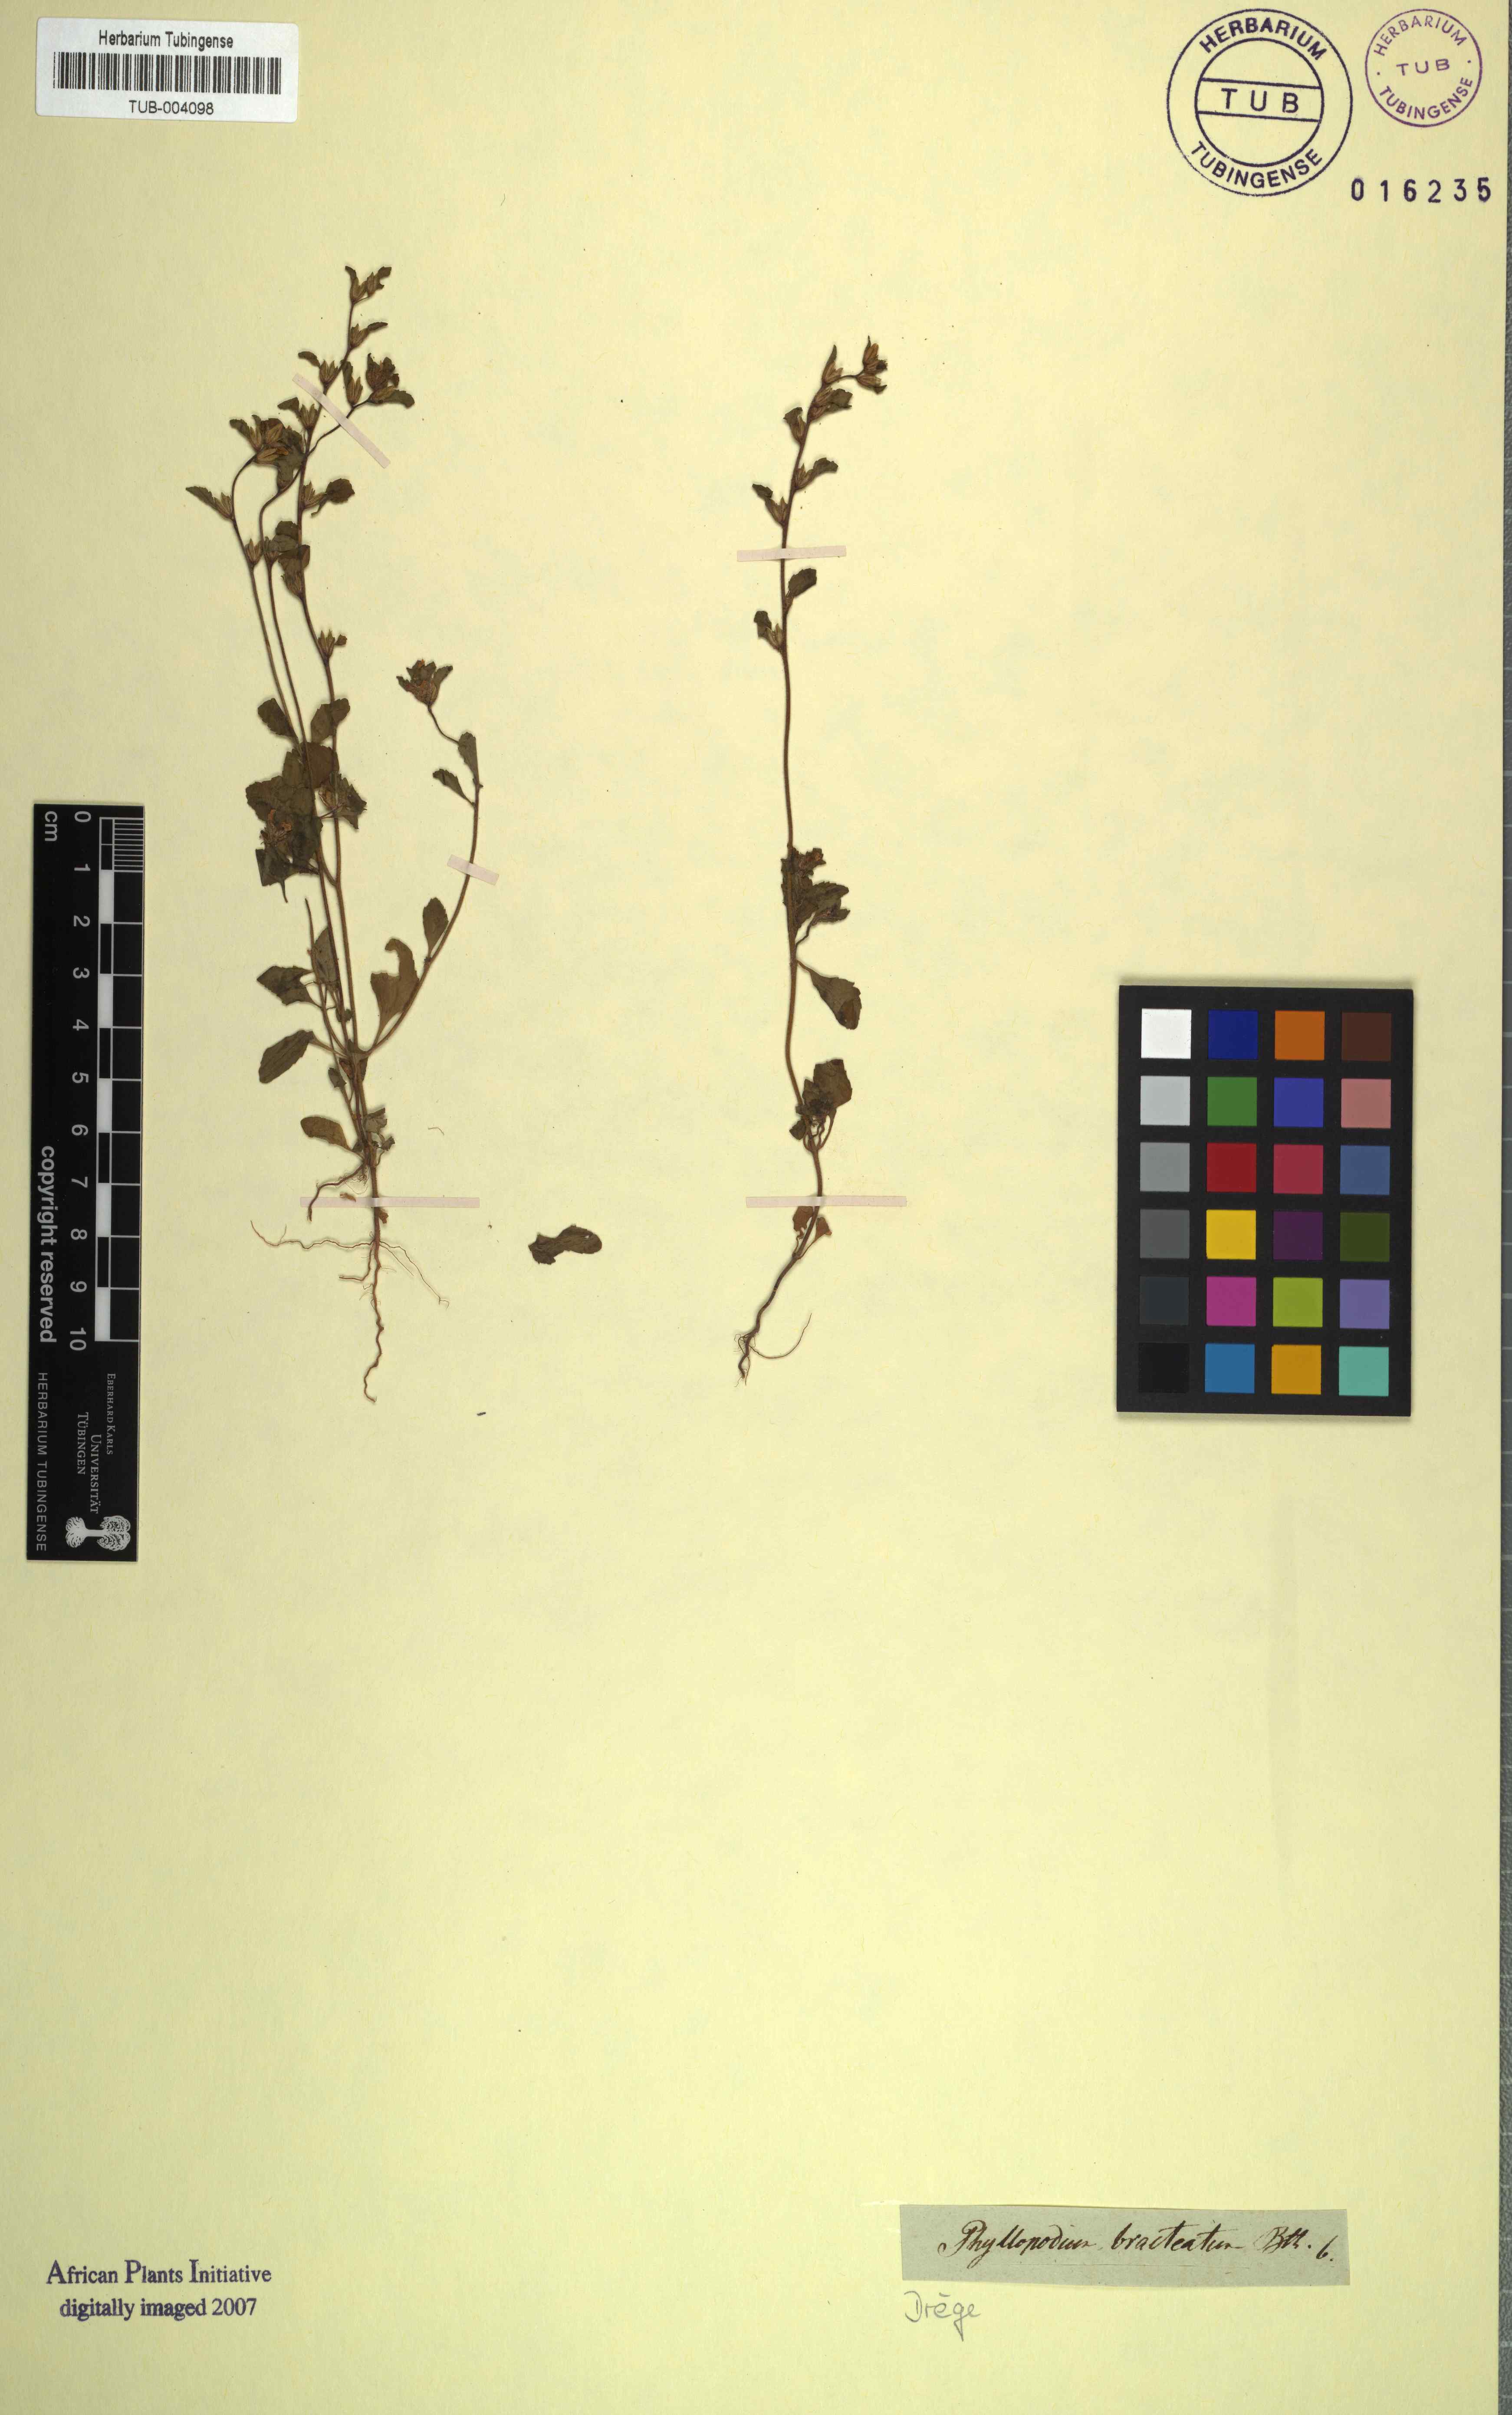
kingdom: Plantae
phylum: Tracheophyta
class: Magnoliopsida
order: Lamiales
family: Scrophulariaceae
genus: Phyllopodium
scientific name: Phyllopodium bracteatum
